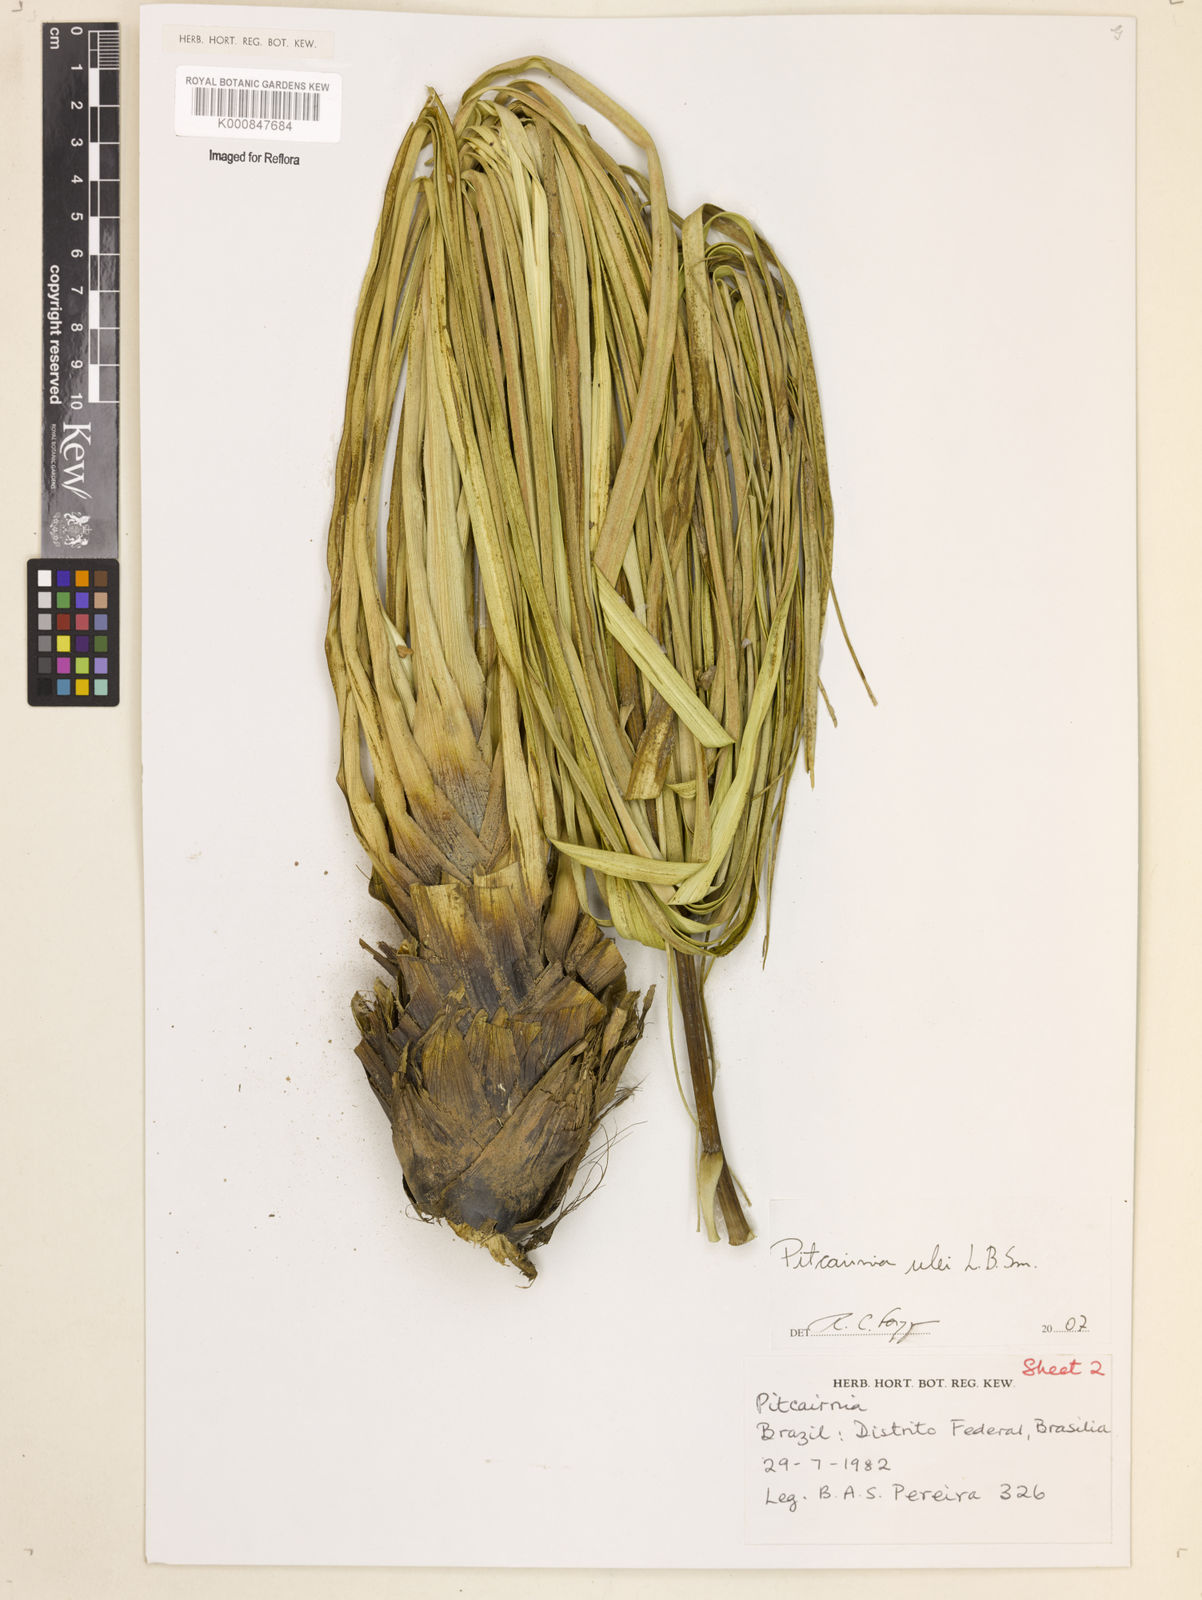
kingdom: Plantae
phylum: Tracheophyta
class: Liliopsida
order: Poales
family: Bromeliaceae
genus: Pitcairnia
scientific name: Pitcairnia ulei
